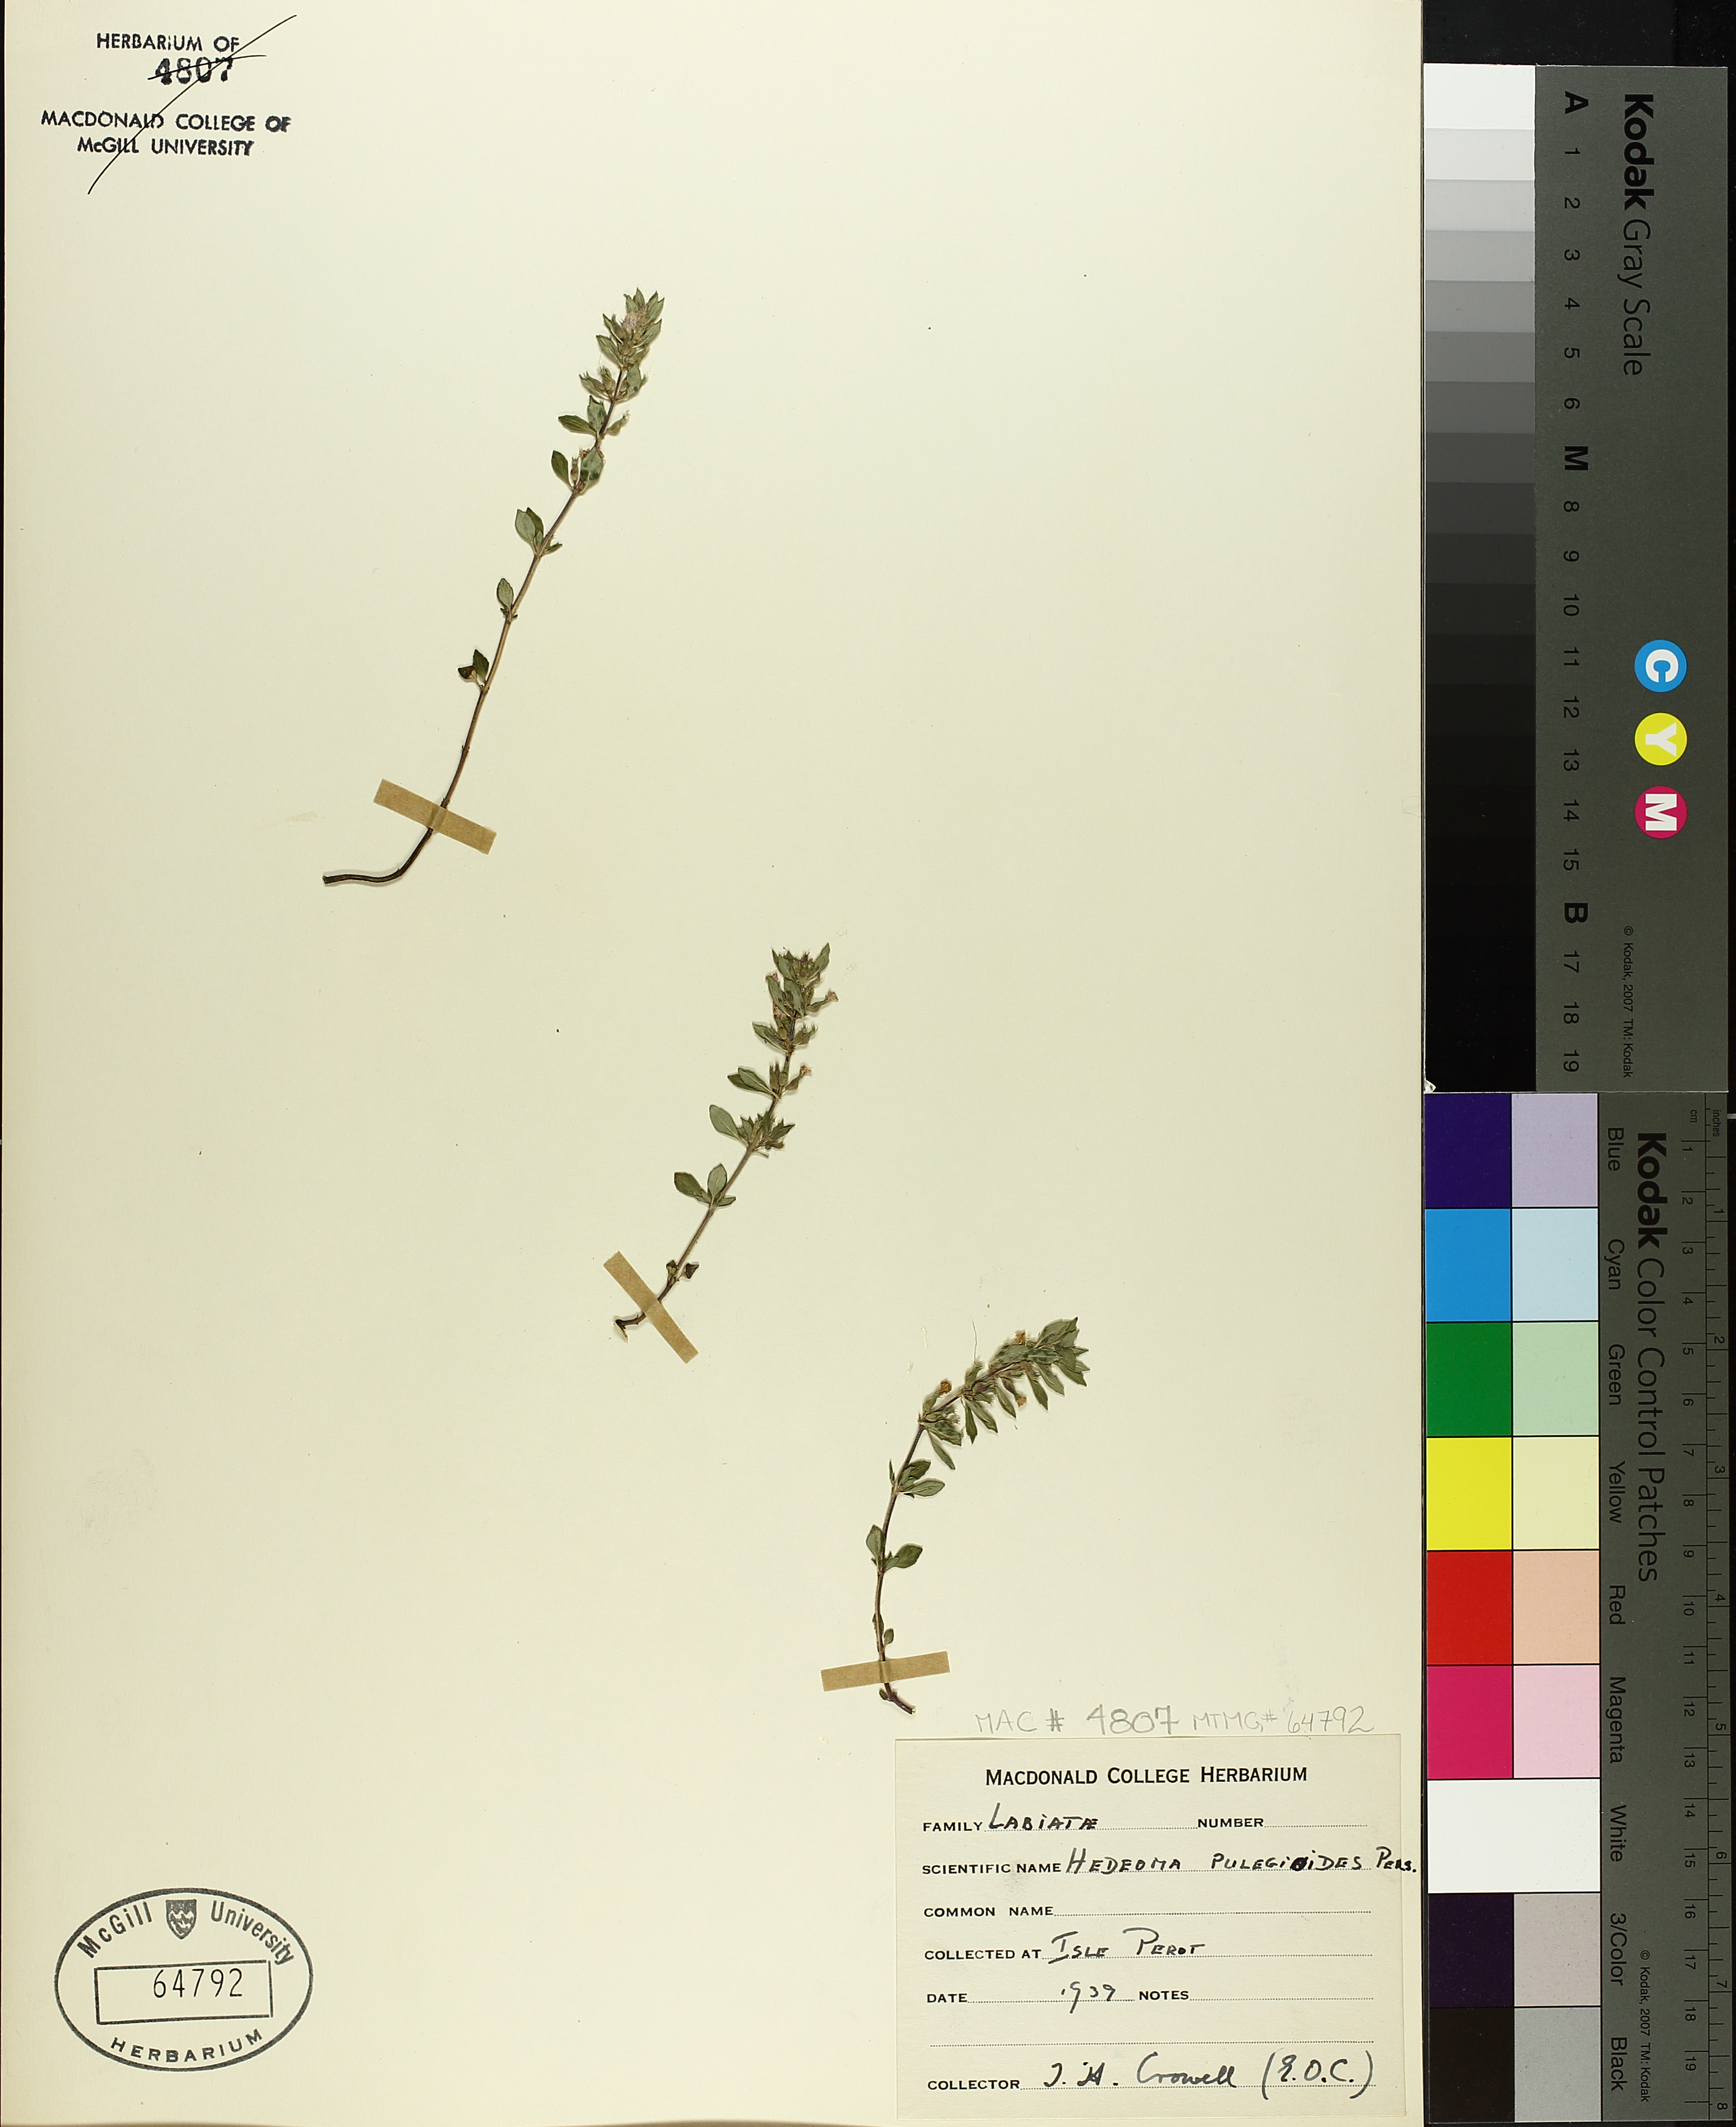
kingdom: Plantae
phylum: Tracheophyta
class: Magnoliopsida
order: Lamiales
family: Lamiaceae
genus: Hedeoma
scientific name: Hedeoma pulegioides
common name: American false pennyroyal
